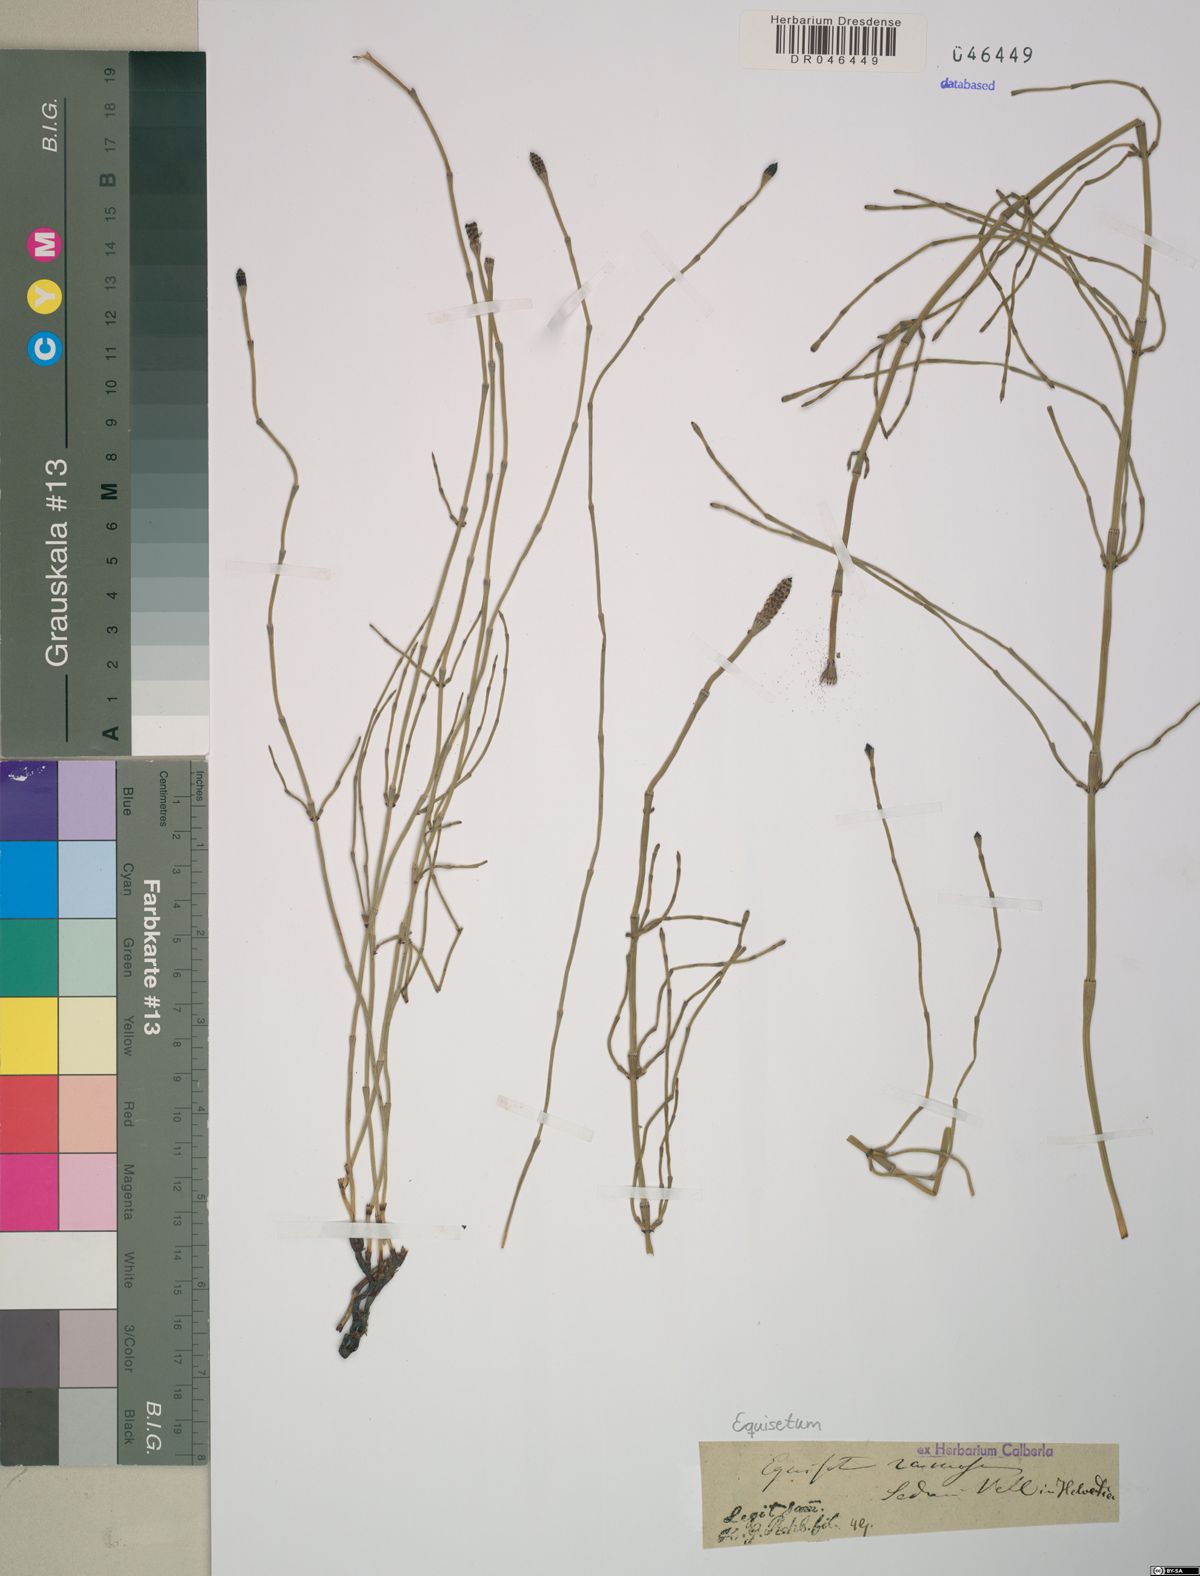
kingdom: Plantae
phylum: Tracheophyta
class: Polypodiopsida
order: Equisetales
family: Equisetaceae
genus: Equisetum
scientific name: Equisetum ramosissimum
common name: Branched horsetail
